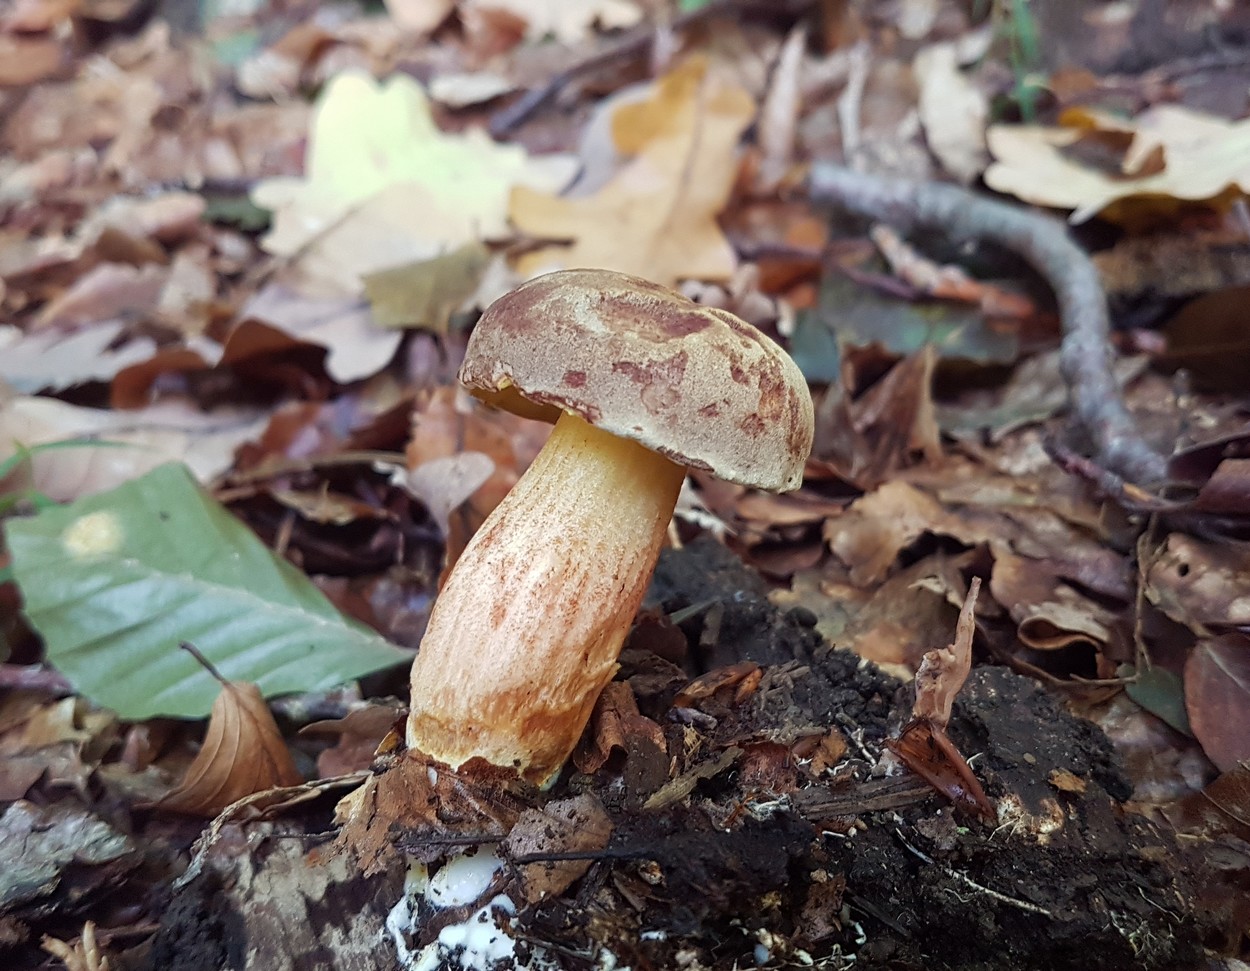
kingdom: Fungi
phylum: Basidiomycota
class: Agaricomycetes
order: Boletales
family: Boletaceae
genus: Xerocomus
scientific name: Xerocomus subtomentosus
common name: filtet rørhat
